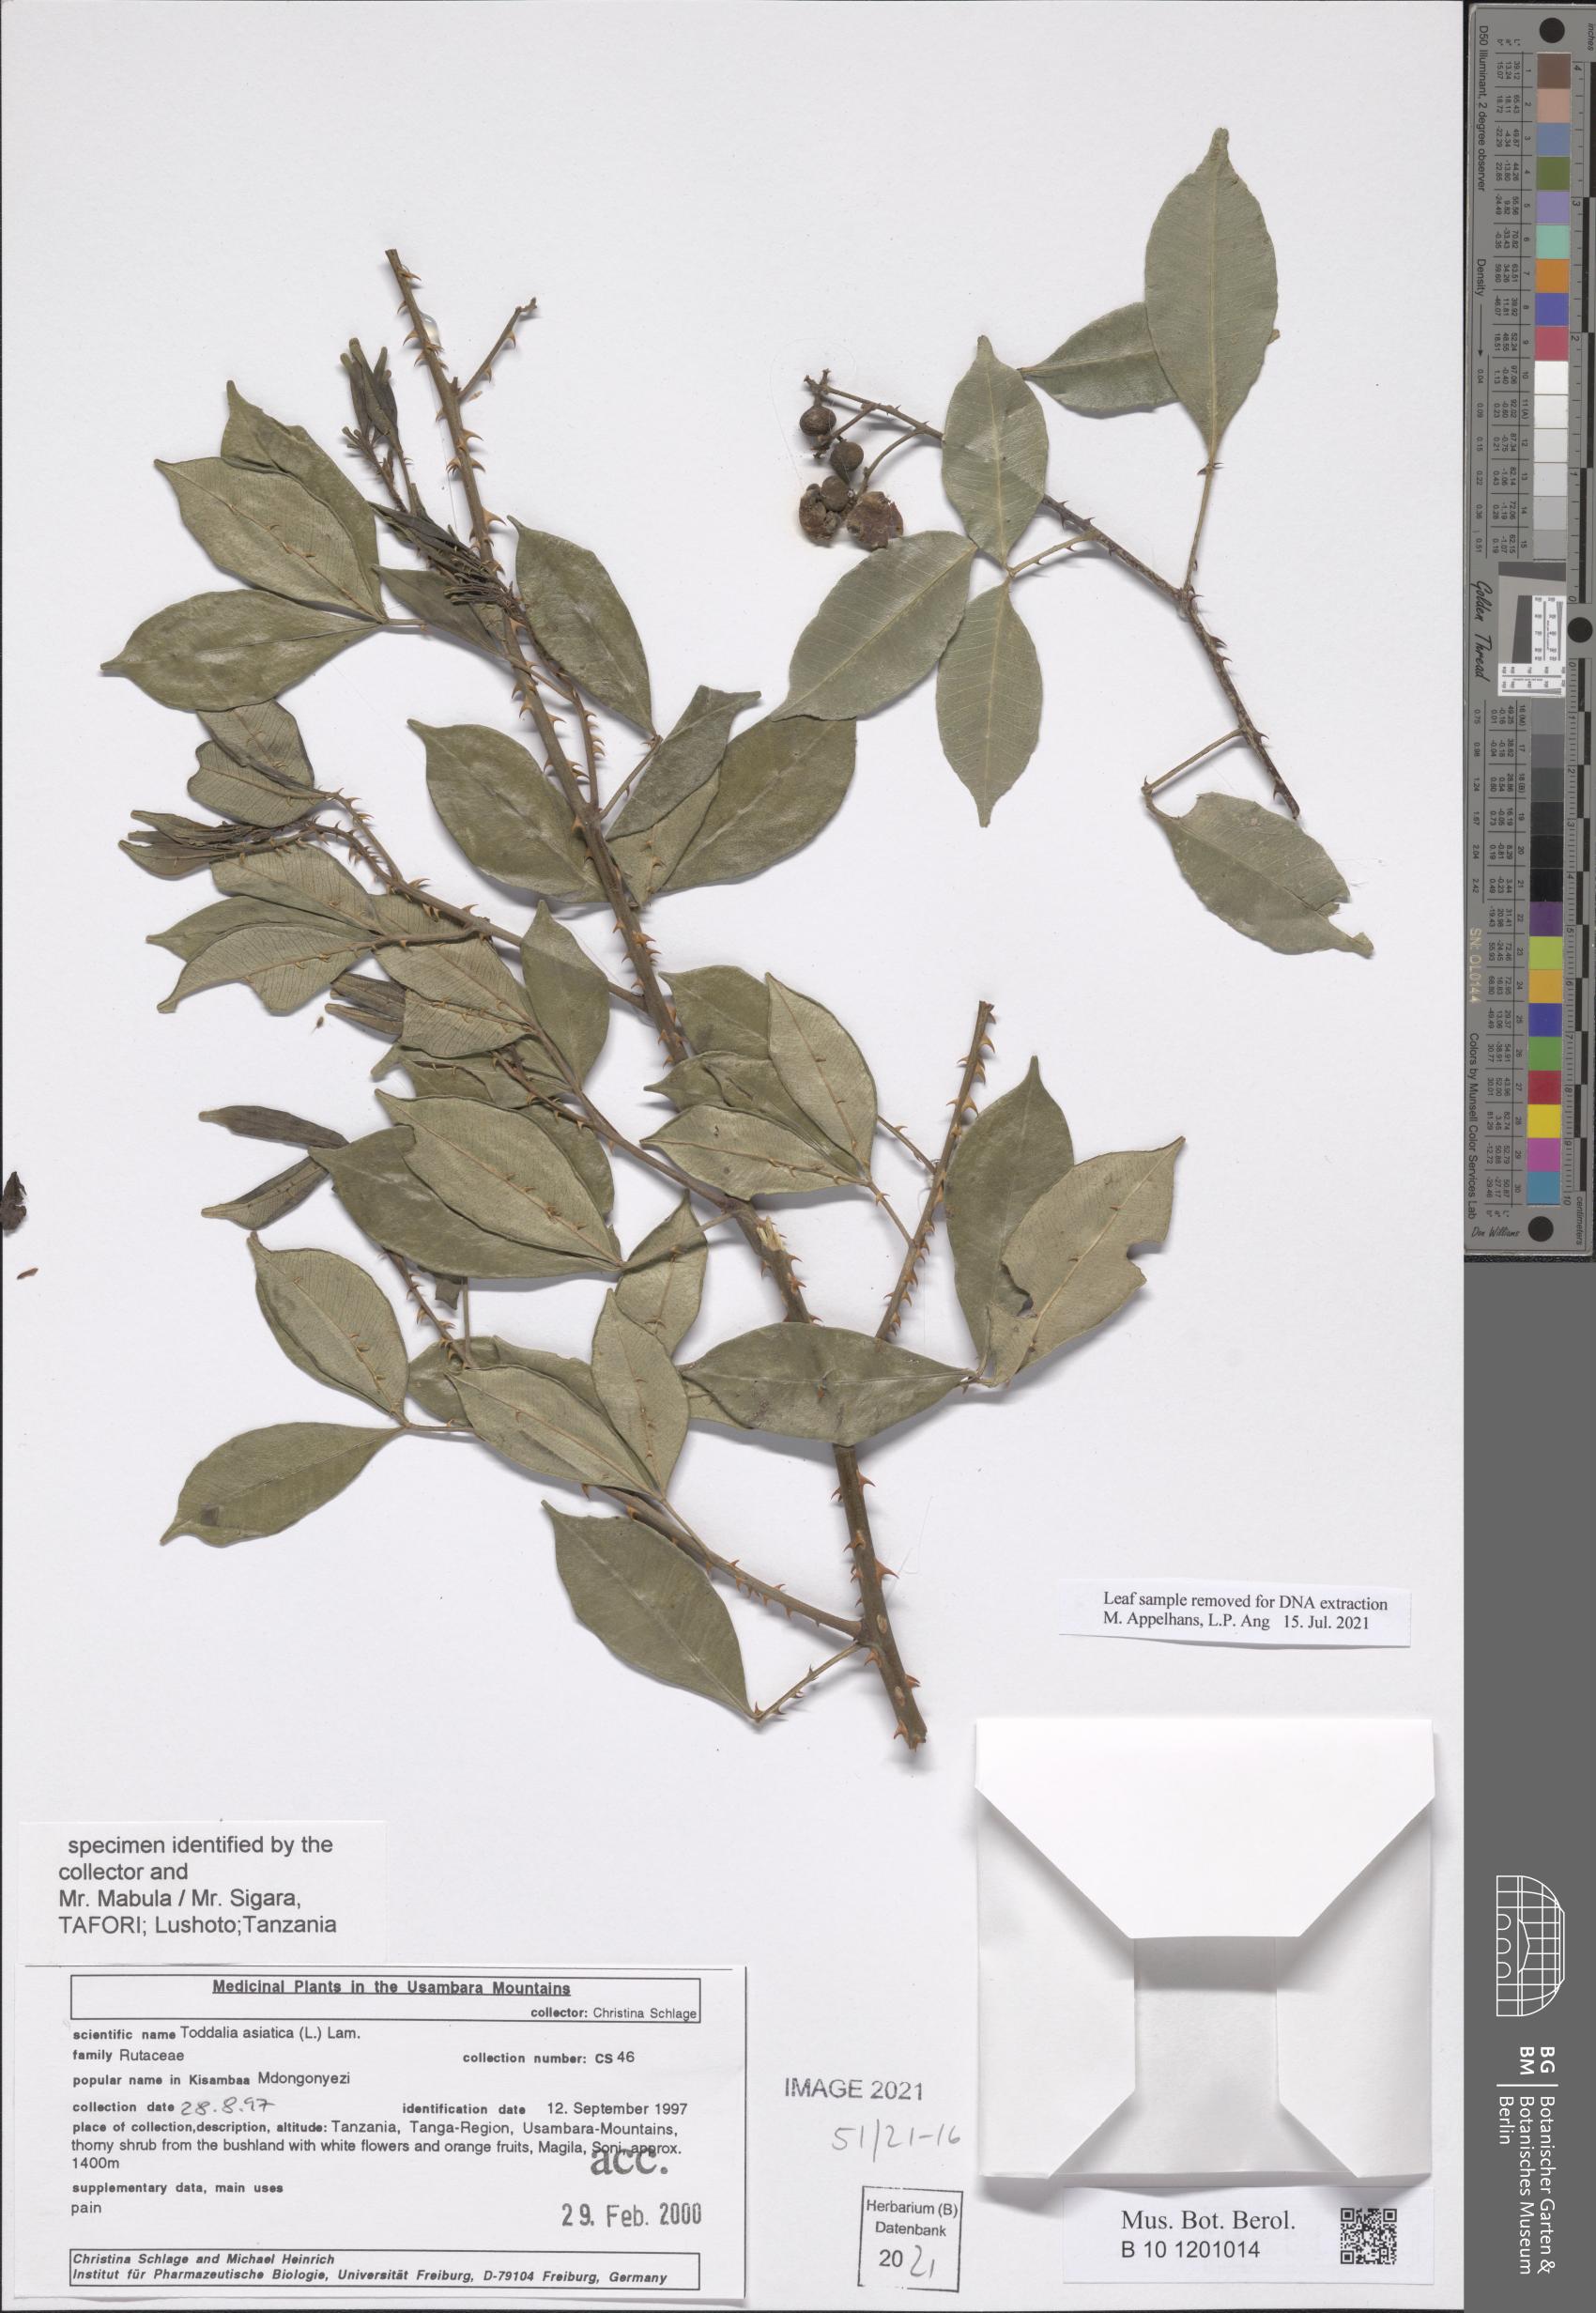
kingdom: Plantae
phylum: Tracheophyta
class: Magnoliopsida
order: Sapindales
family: Rutaceae
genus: Zanthoxylum
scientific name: Zanthoxylum asiaticum
